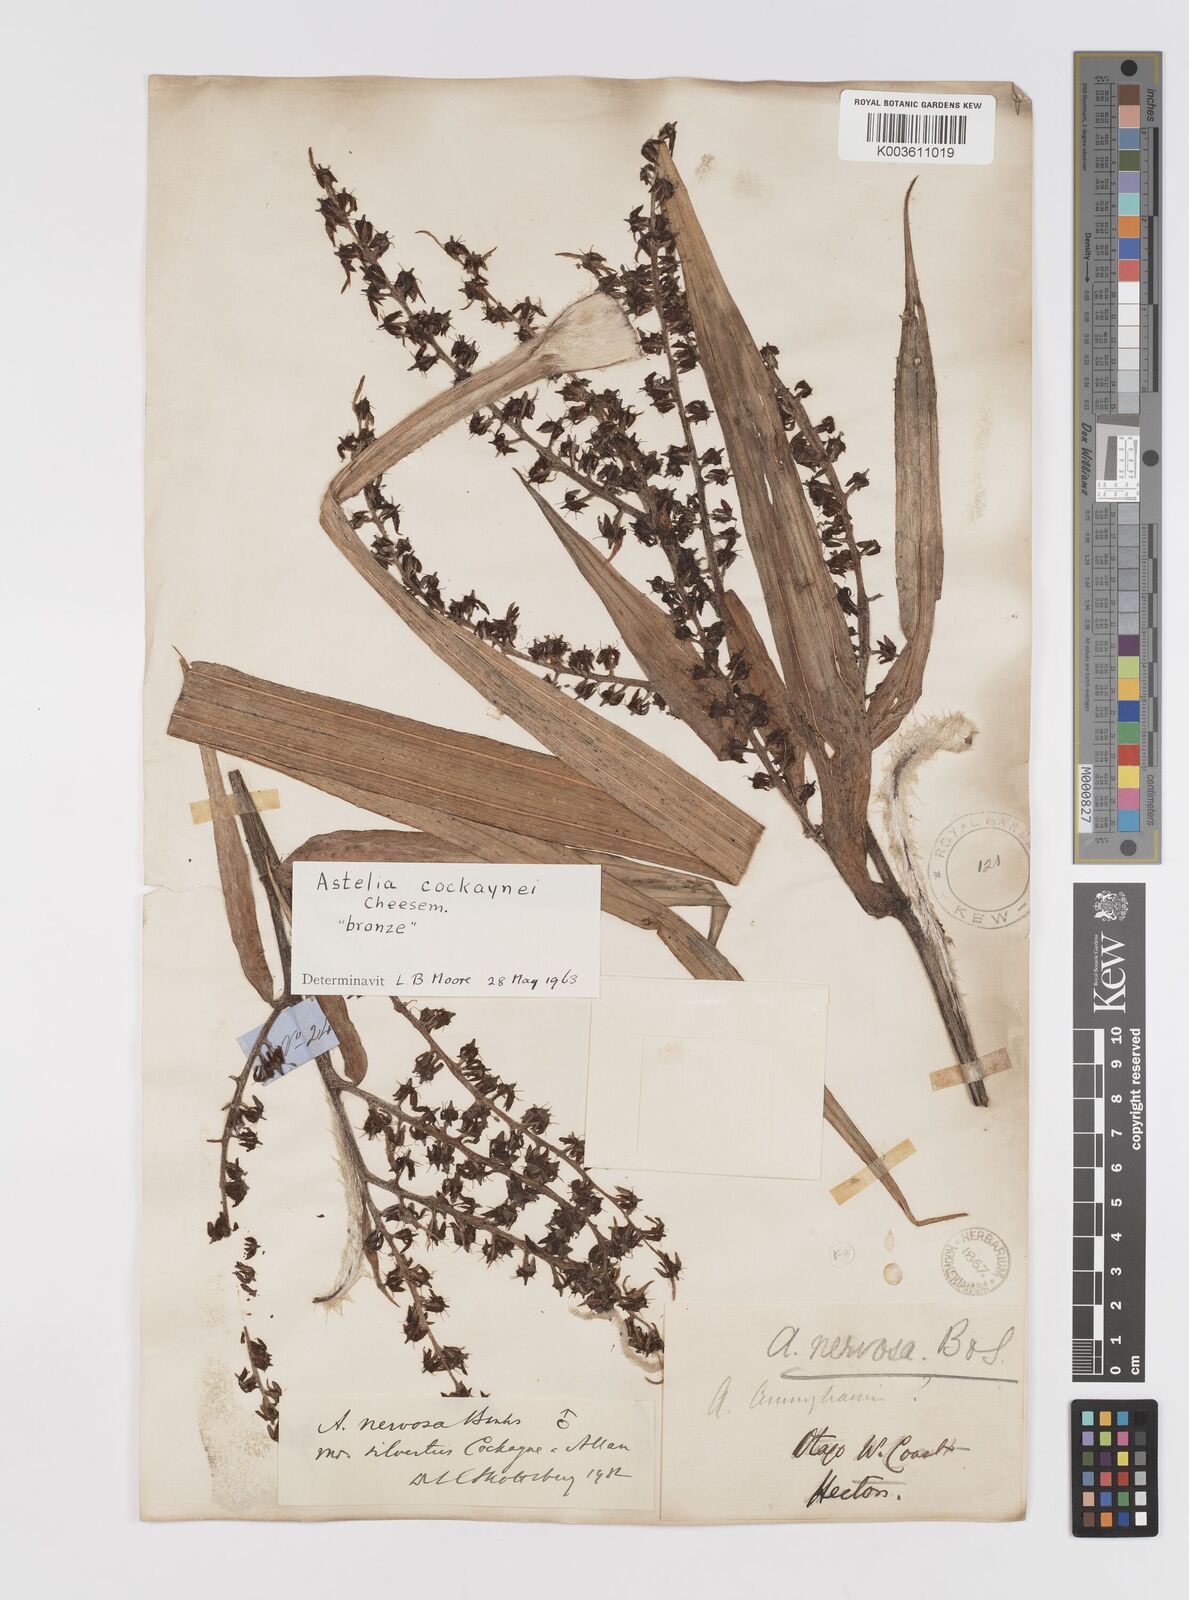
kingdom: Plantae
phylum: Tracheophyta
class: Liliopsida
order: Asparagales
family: Asteliaceae
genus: Astelia
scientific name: Astelia nervosa
